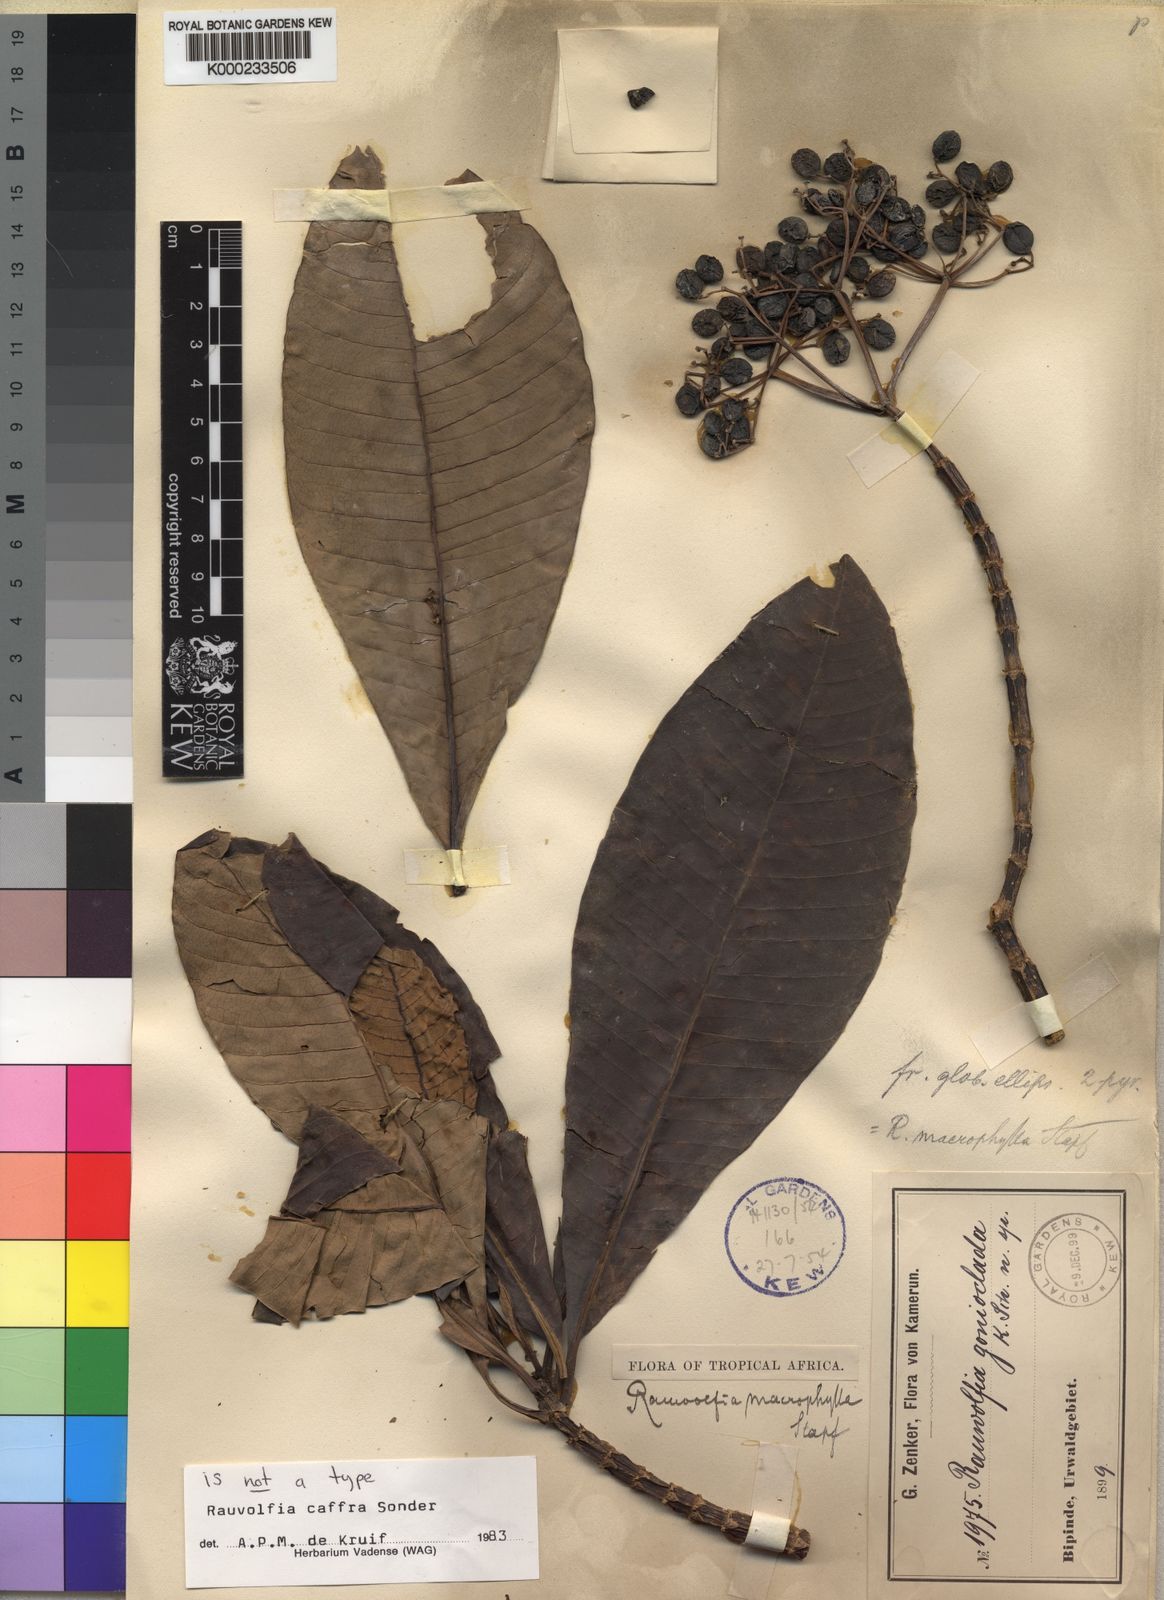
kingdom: Plantae
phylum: Tracheophyta
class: Magnoliopsida
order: Gentianales
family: Apocynaceae
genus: Rauvolfia
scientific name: Rauvolfia caffra
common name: Quininetree
